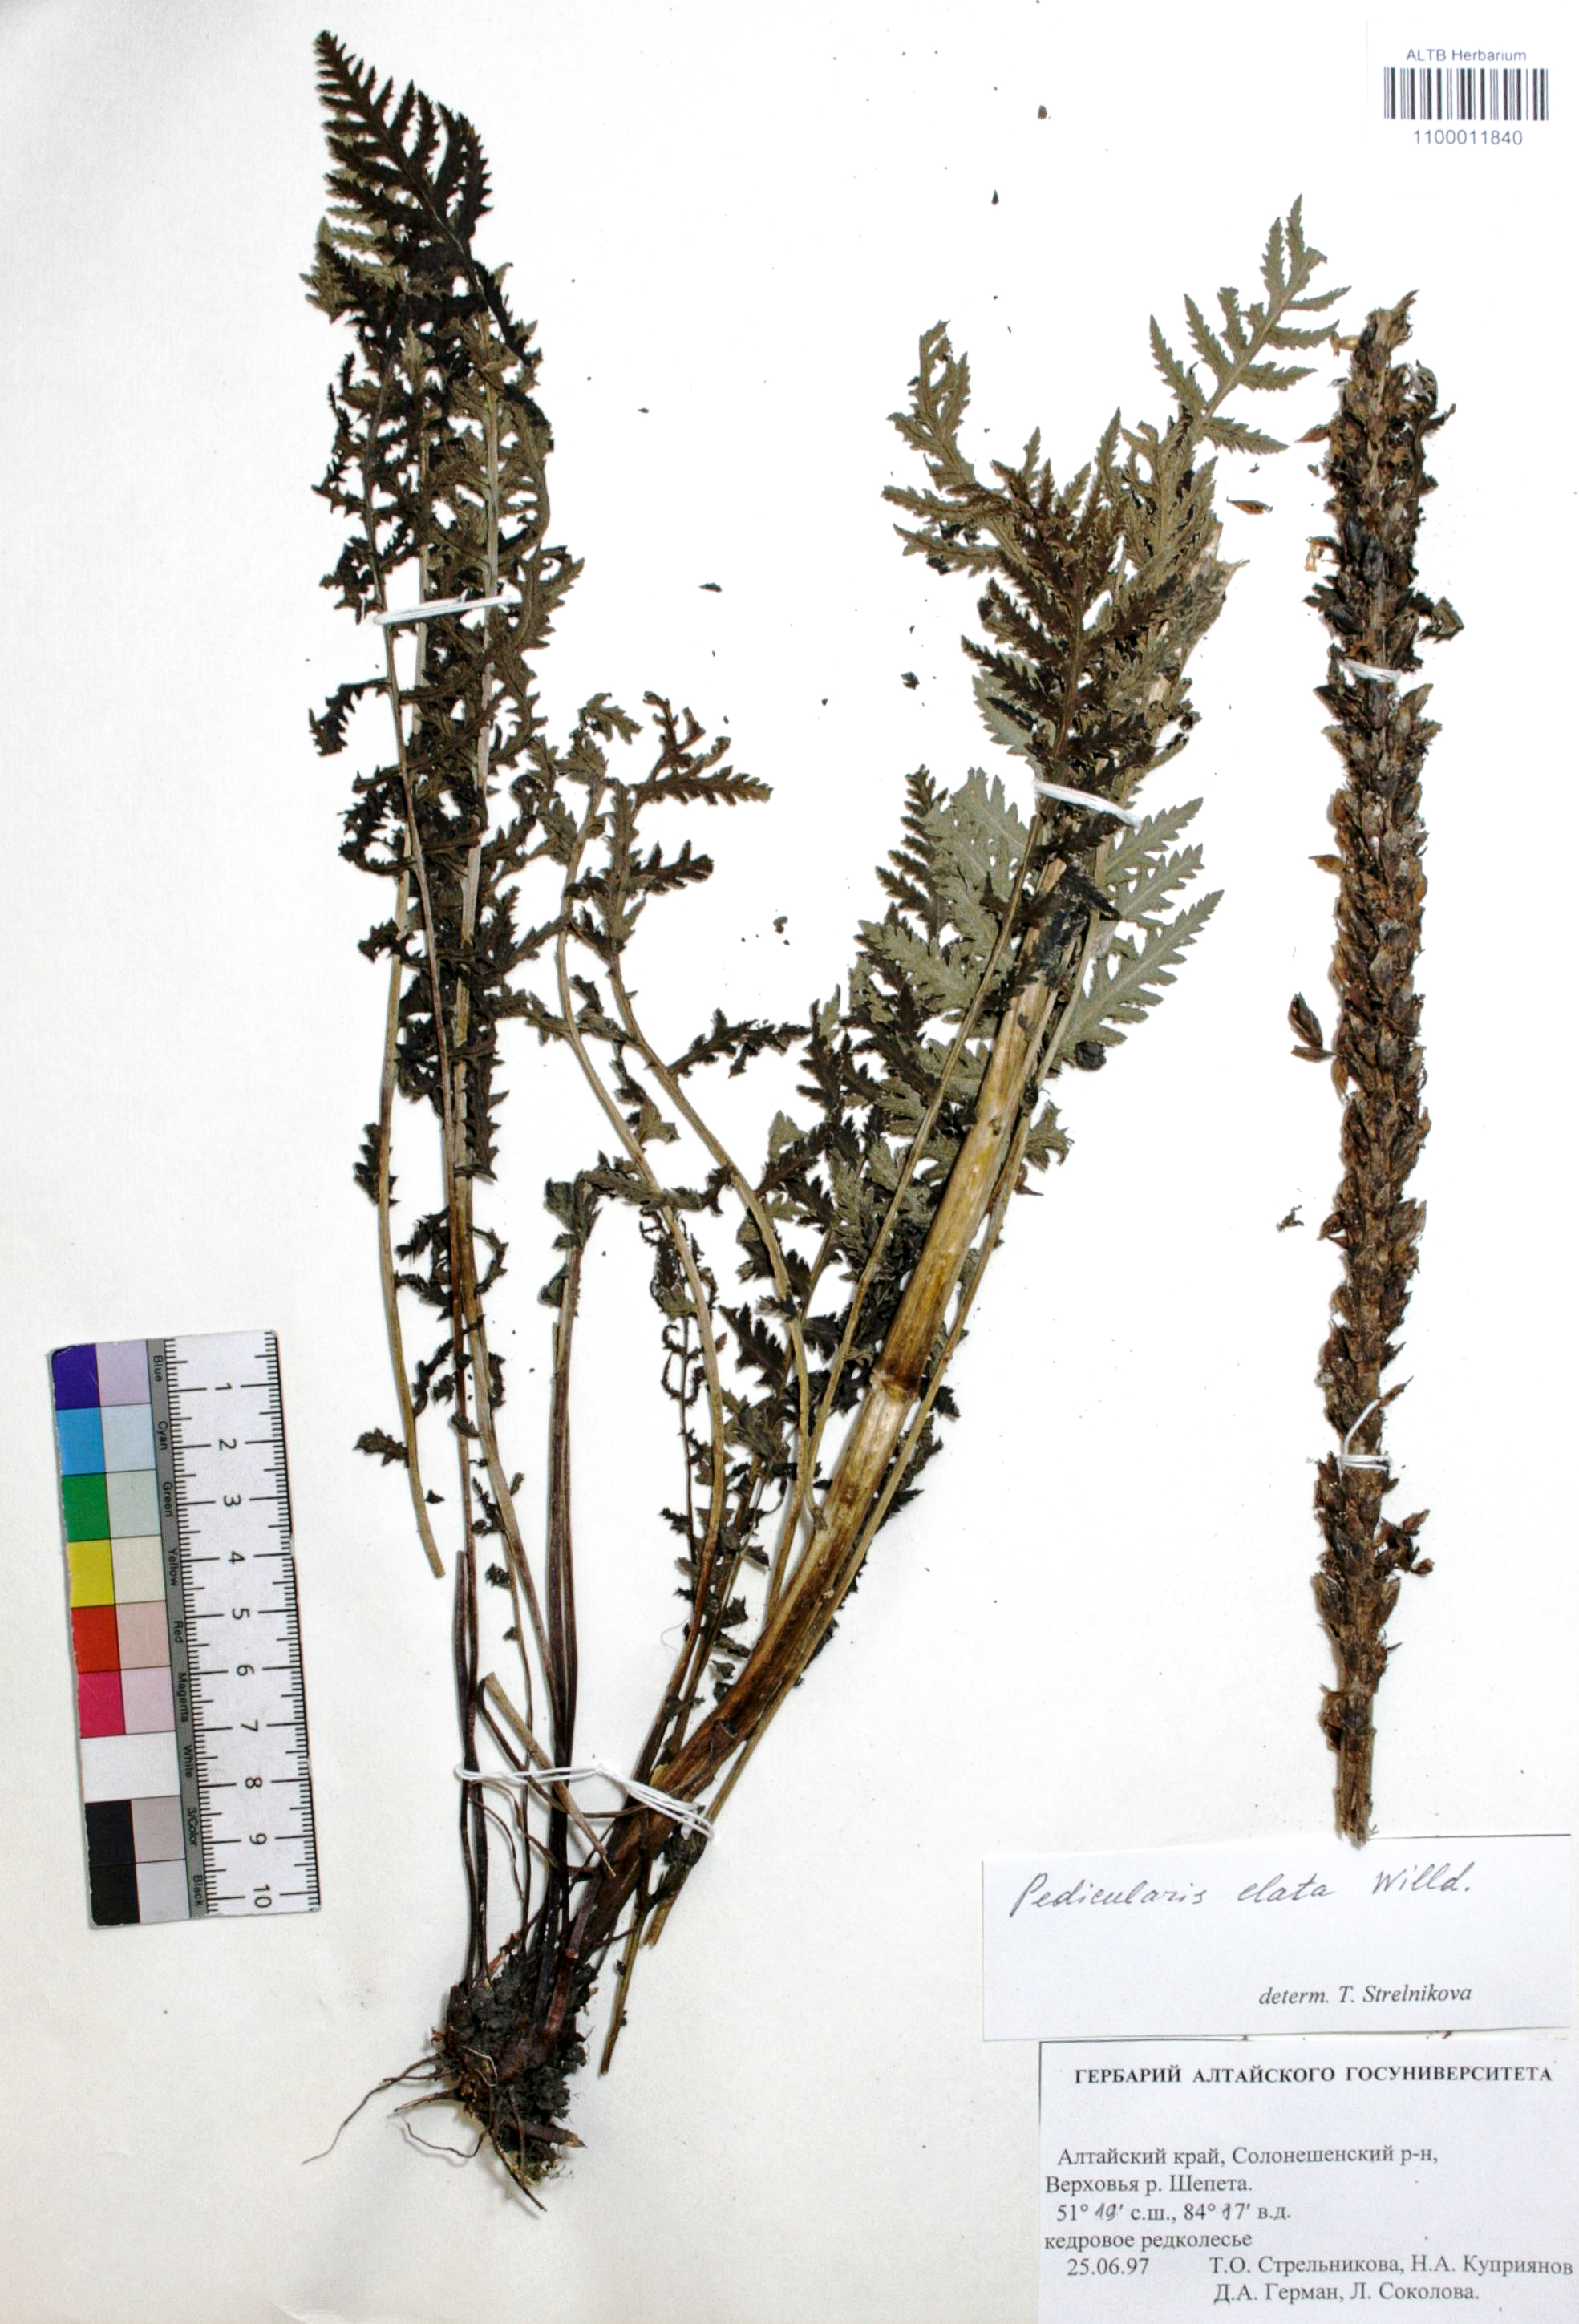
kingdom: Plantae
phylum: Tracheophyta
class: Magnoliopsida
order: Lamiales
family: Orobanchaceae
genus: Pedicularis
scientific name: Pedicularis elata
